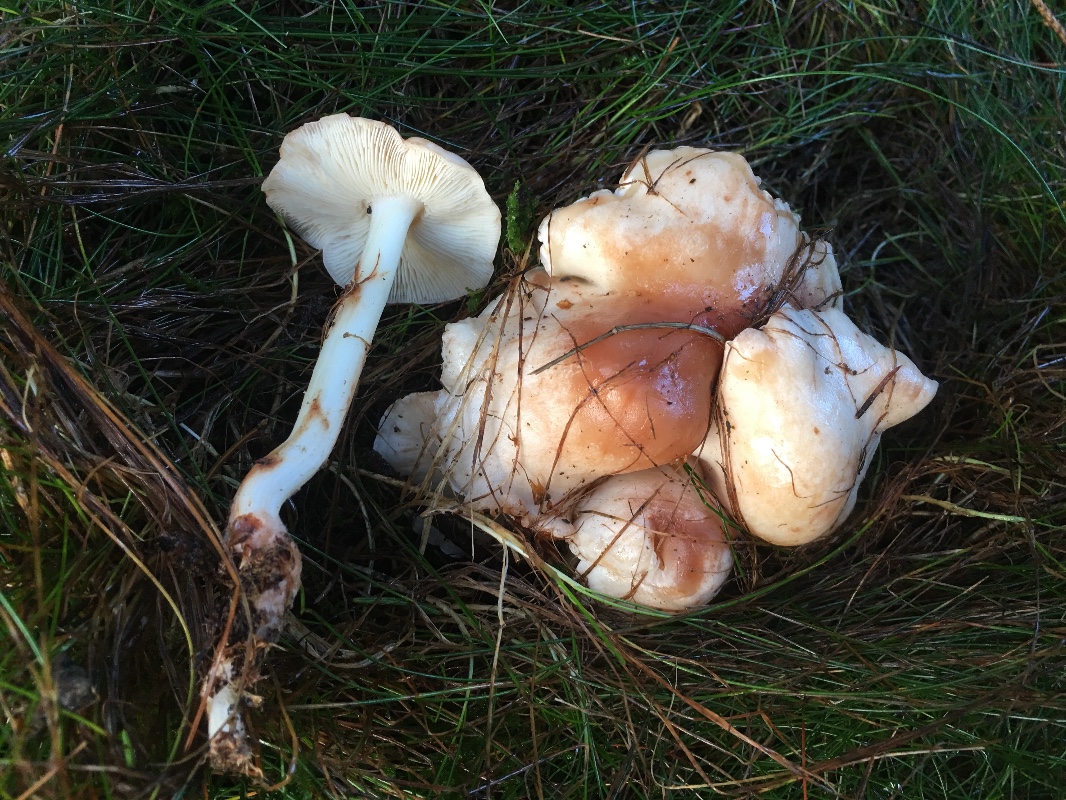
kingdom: Fungi
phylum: Basidiomycota
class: Agaricomycetes
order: Agaricales
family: Omphalotaceae
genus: Rhodocollybia
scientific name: Rhodocollybia maculata
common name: plettet fladhat
